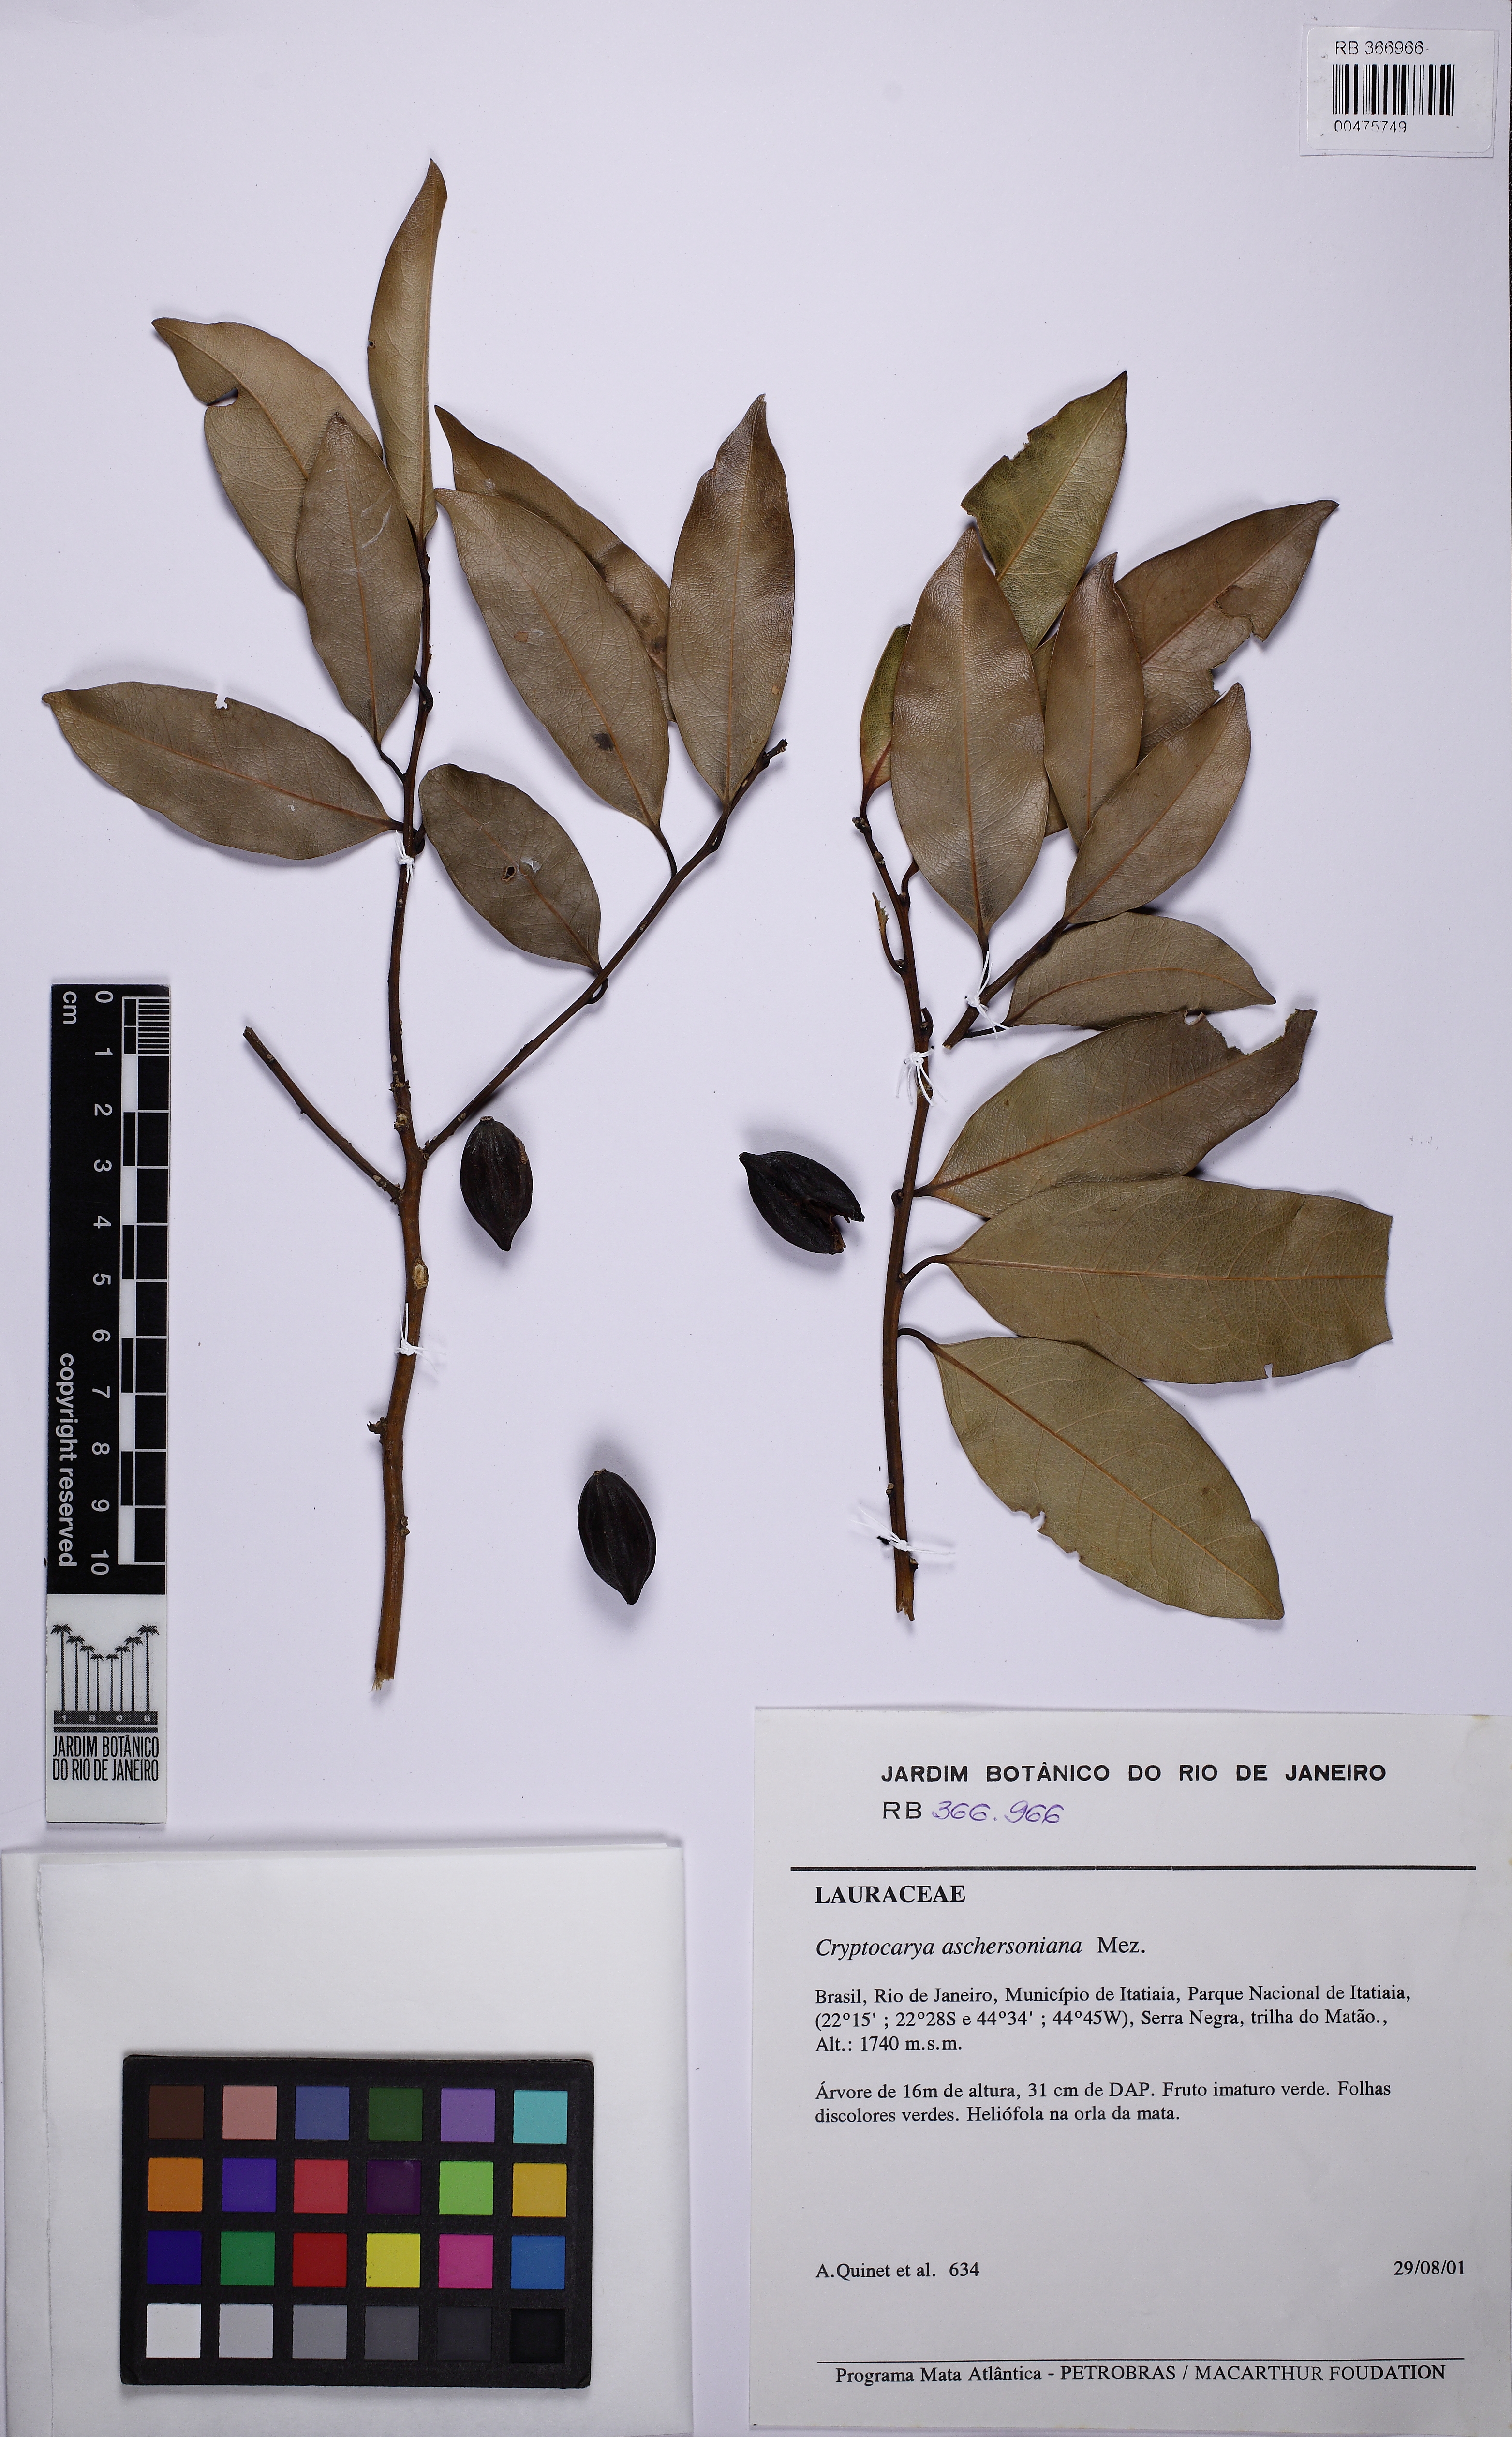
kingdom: Plantae
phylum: Tracheophyta
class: Magnoliopsida
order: Laurales
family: Lauraceae
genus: Cryptocarya
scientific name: Cryptocarya riedeliana
